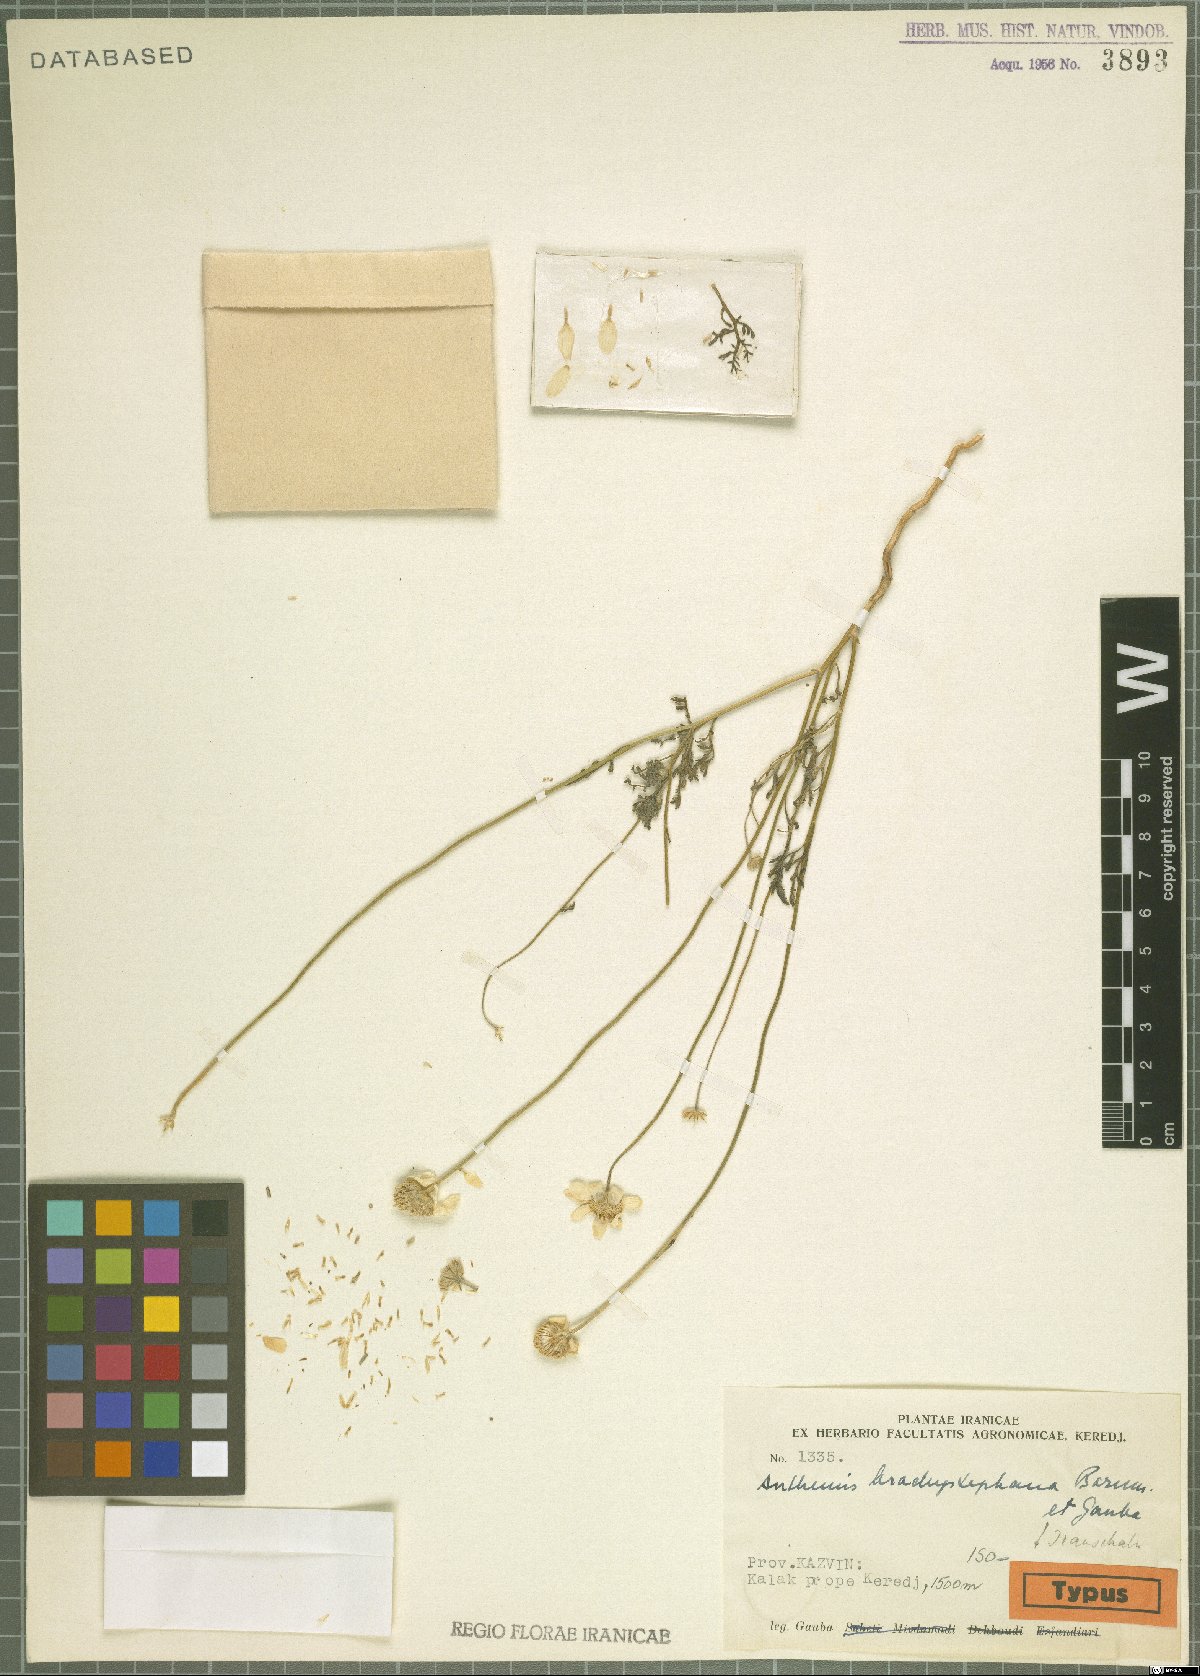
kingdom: Plantae
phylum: Tracheophyta
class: Magnoliopsida
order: Asterales
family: Asteraceae
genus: Anthemis
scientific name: Anthemis brachystephana
